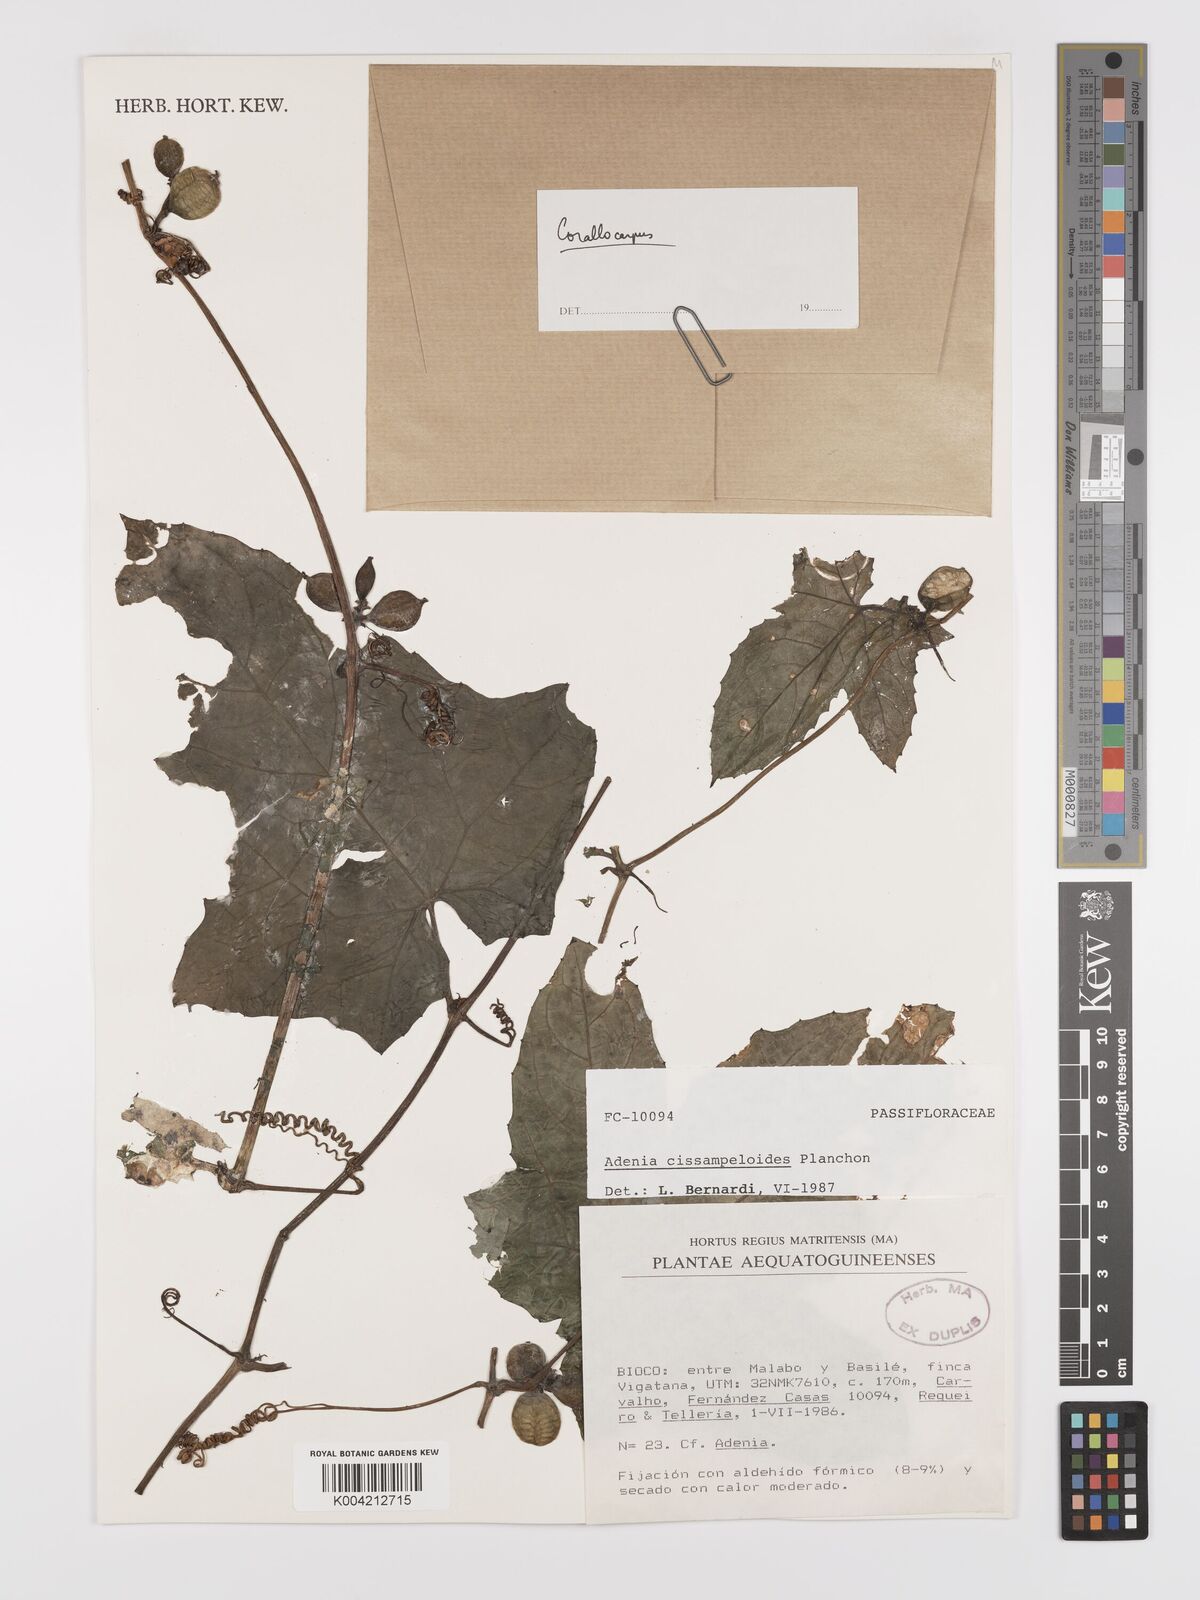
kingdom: Plantae
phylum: Tracheophyta
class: Magnoliopsida
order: Cucurbitales
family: Cucurbitaceae
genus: Corallocarpus
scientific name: Corallocarpus
